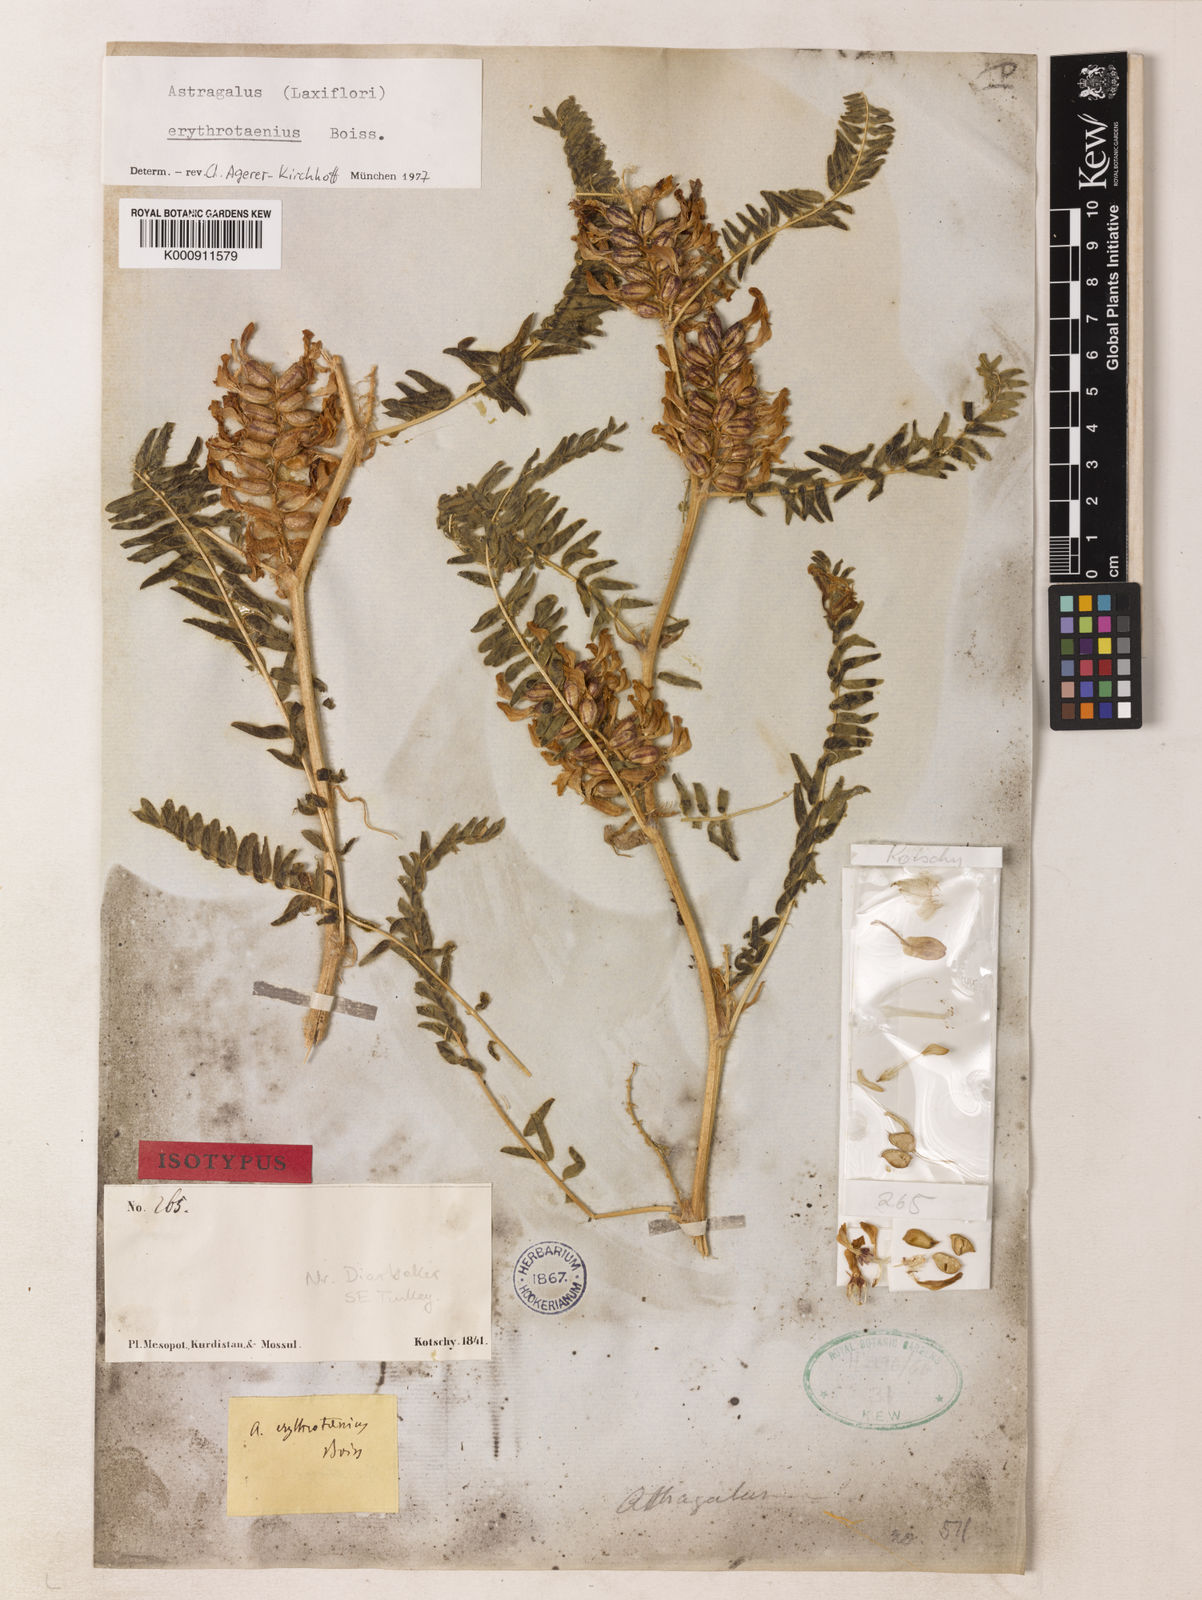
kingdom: Plantae
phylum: Tracheophyta
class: Magnoliopsida
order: Fabales
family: Fabaceae
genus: Astragalus
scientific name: Astragalus erythrotaenius
